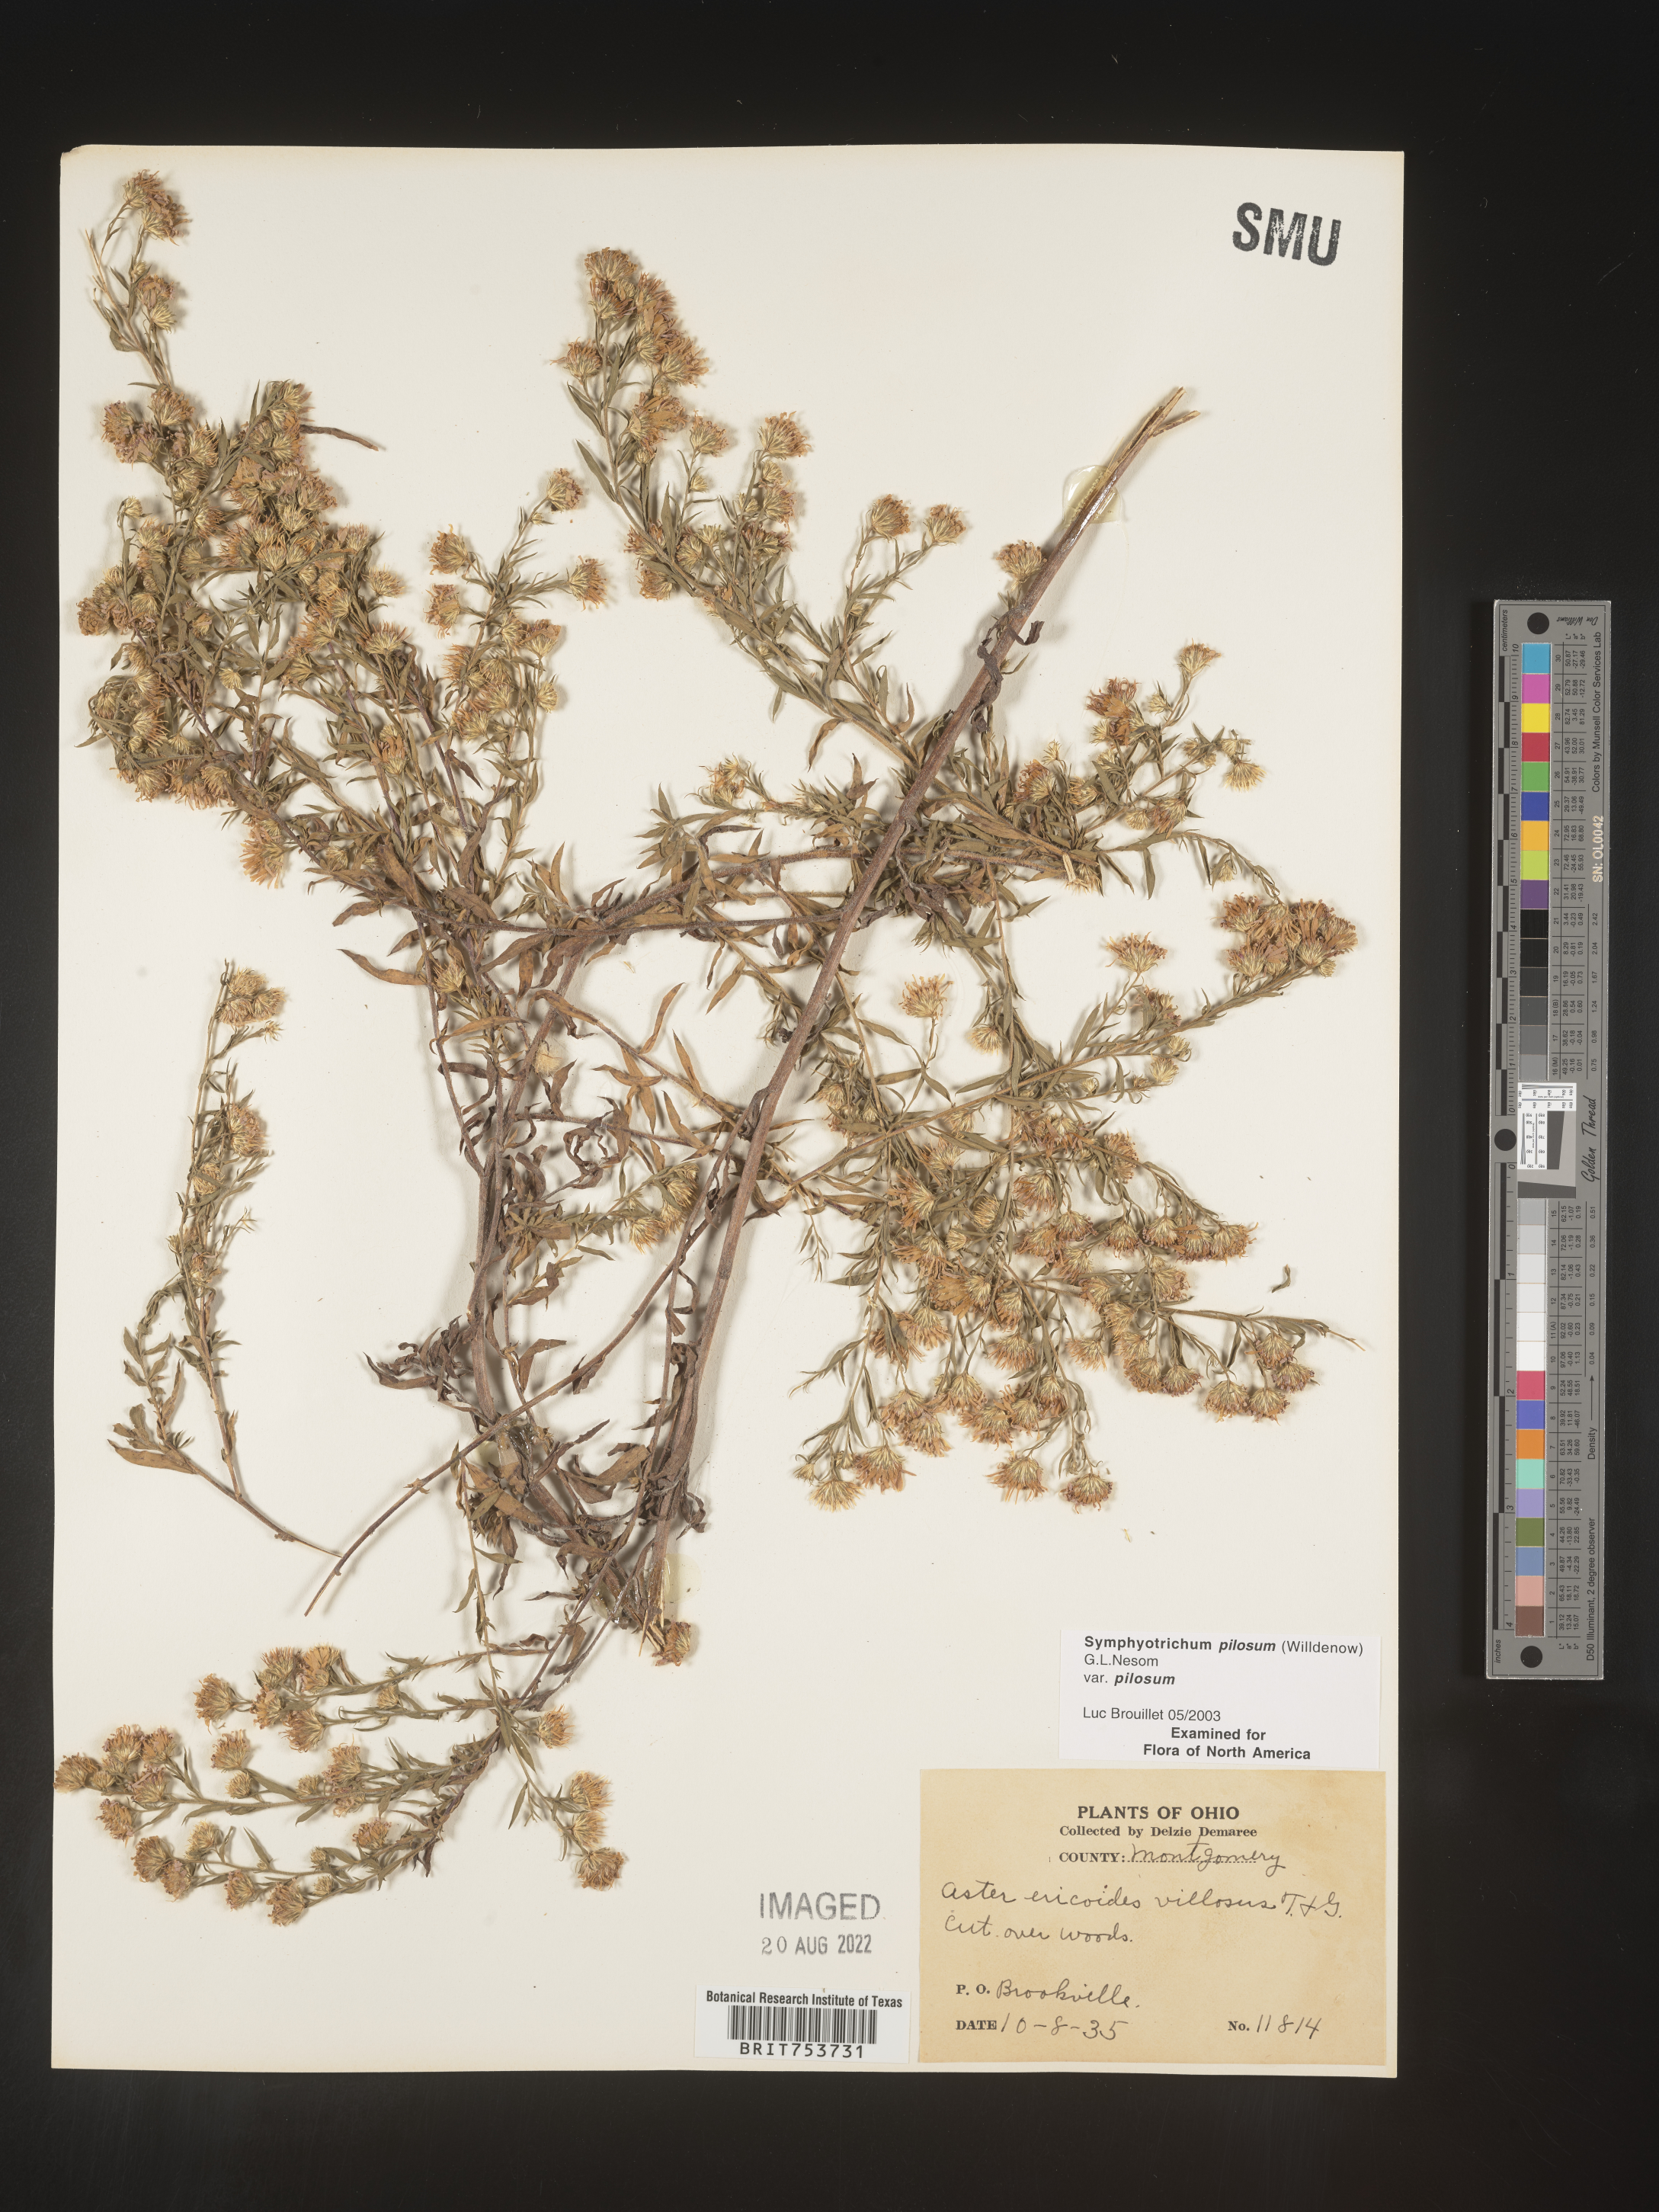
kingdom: Plantae
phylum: Tracheophyta
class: Magnoliopsida
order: Asterales
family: Asteraceae
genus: Symphyotrichum
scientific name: Symphyotrichum pilosum
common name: Awl aster
